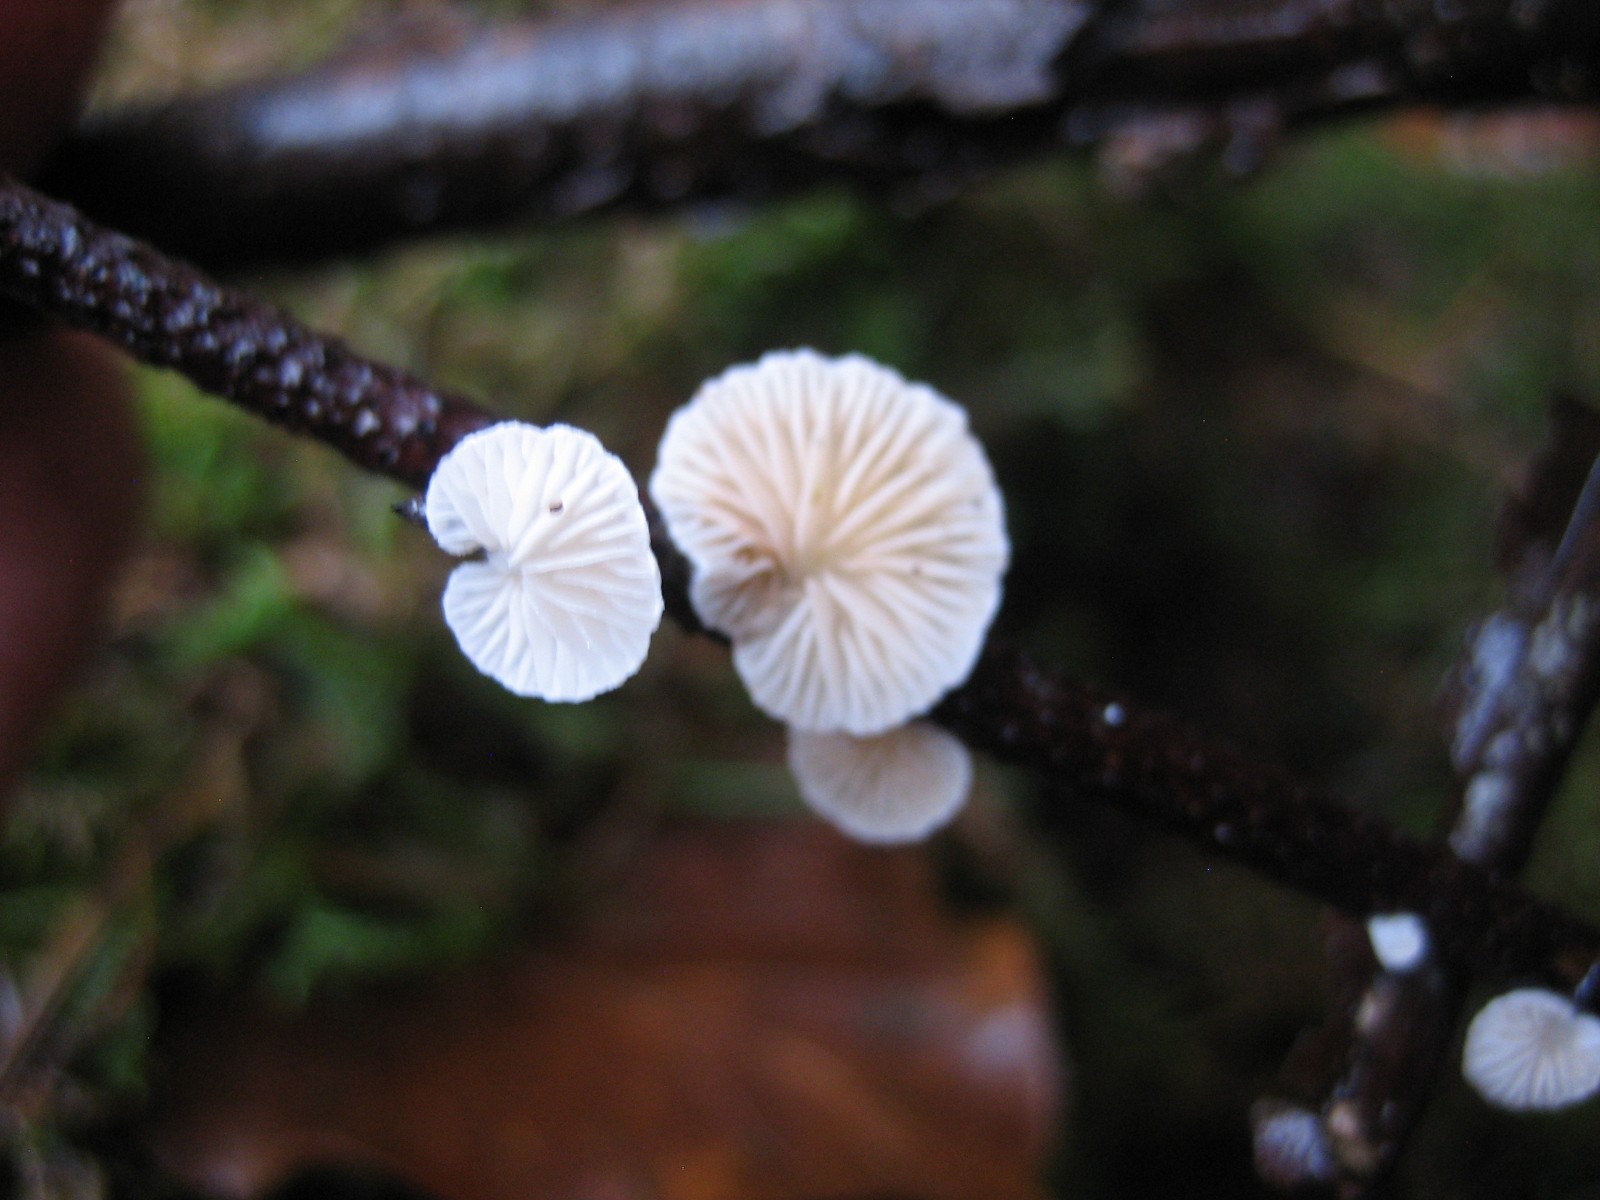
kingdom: Fungi
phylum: Basidiomycota
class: Agaricomycetes
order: Agaricales
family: Crepidotaceae
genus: Crepidotus
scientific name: Crepidotus
